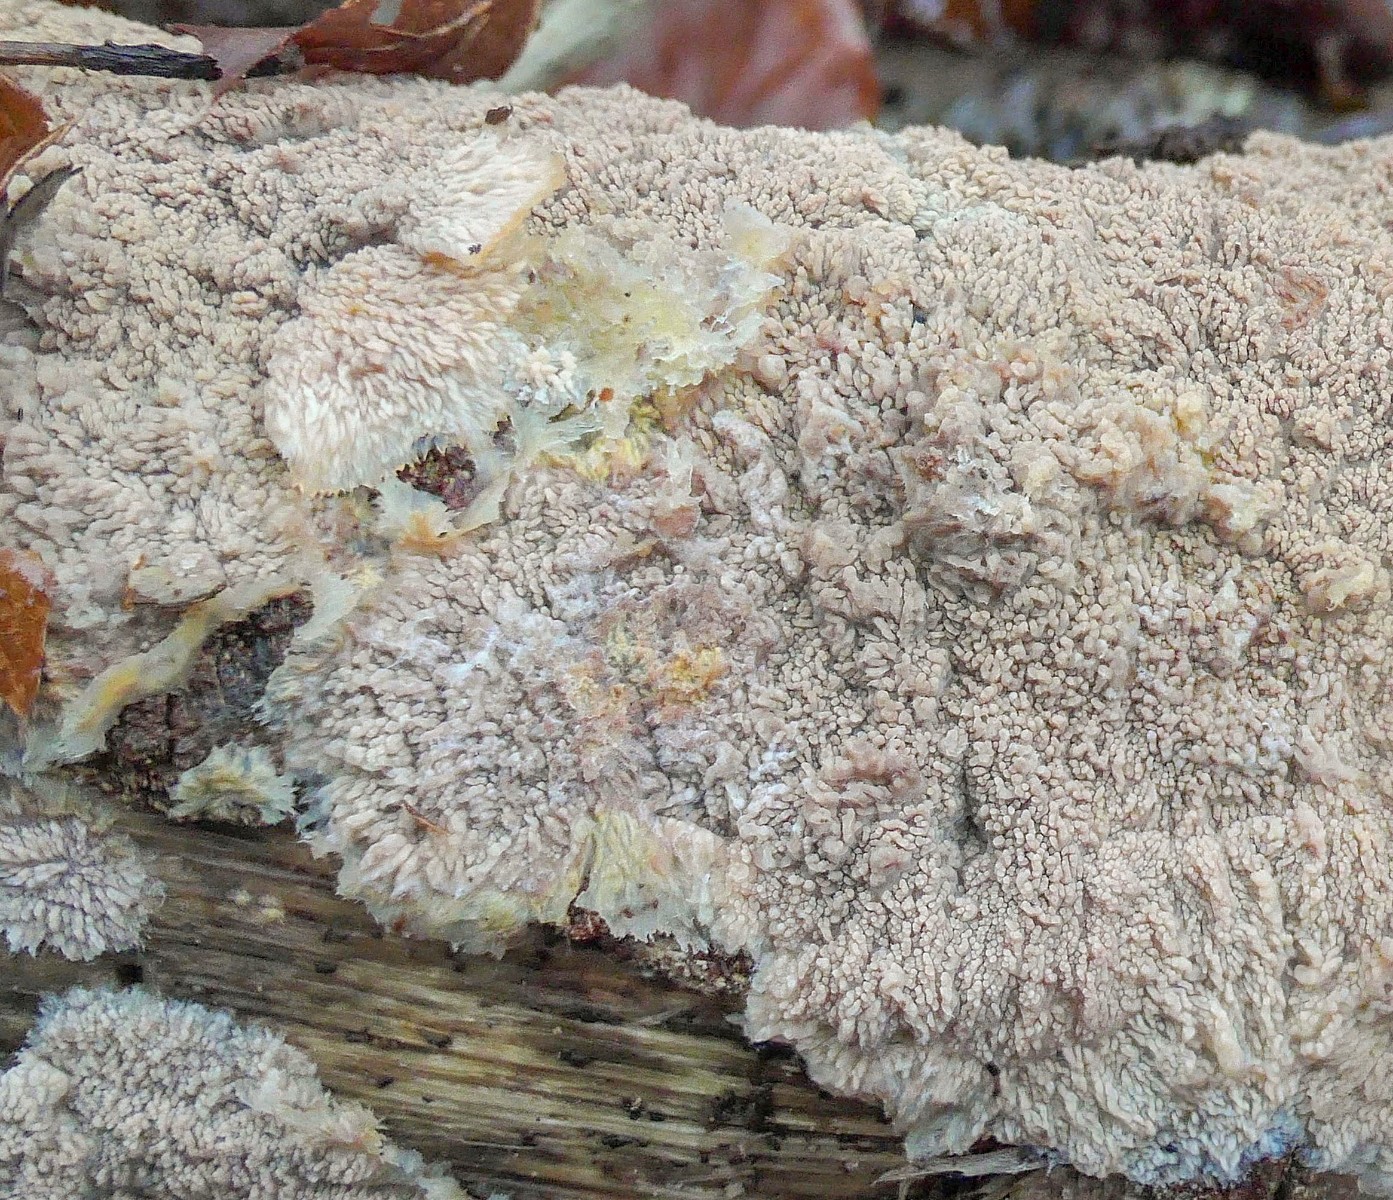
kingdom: Fungi
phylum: Basidiomycota
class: Agaricomycetes
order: Polyporales
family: Meruliaceae
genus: Phlebia
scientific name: Phlebia radiata
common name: stråle-åresvamp
